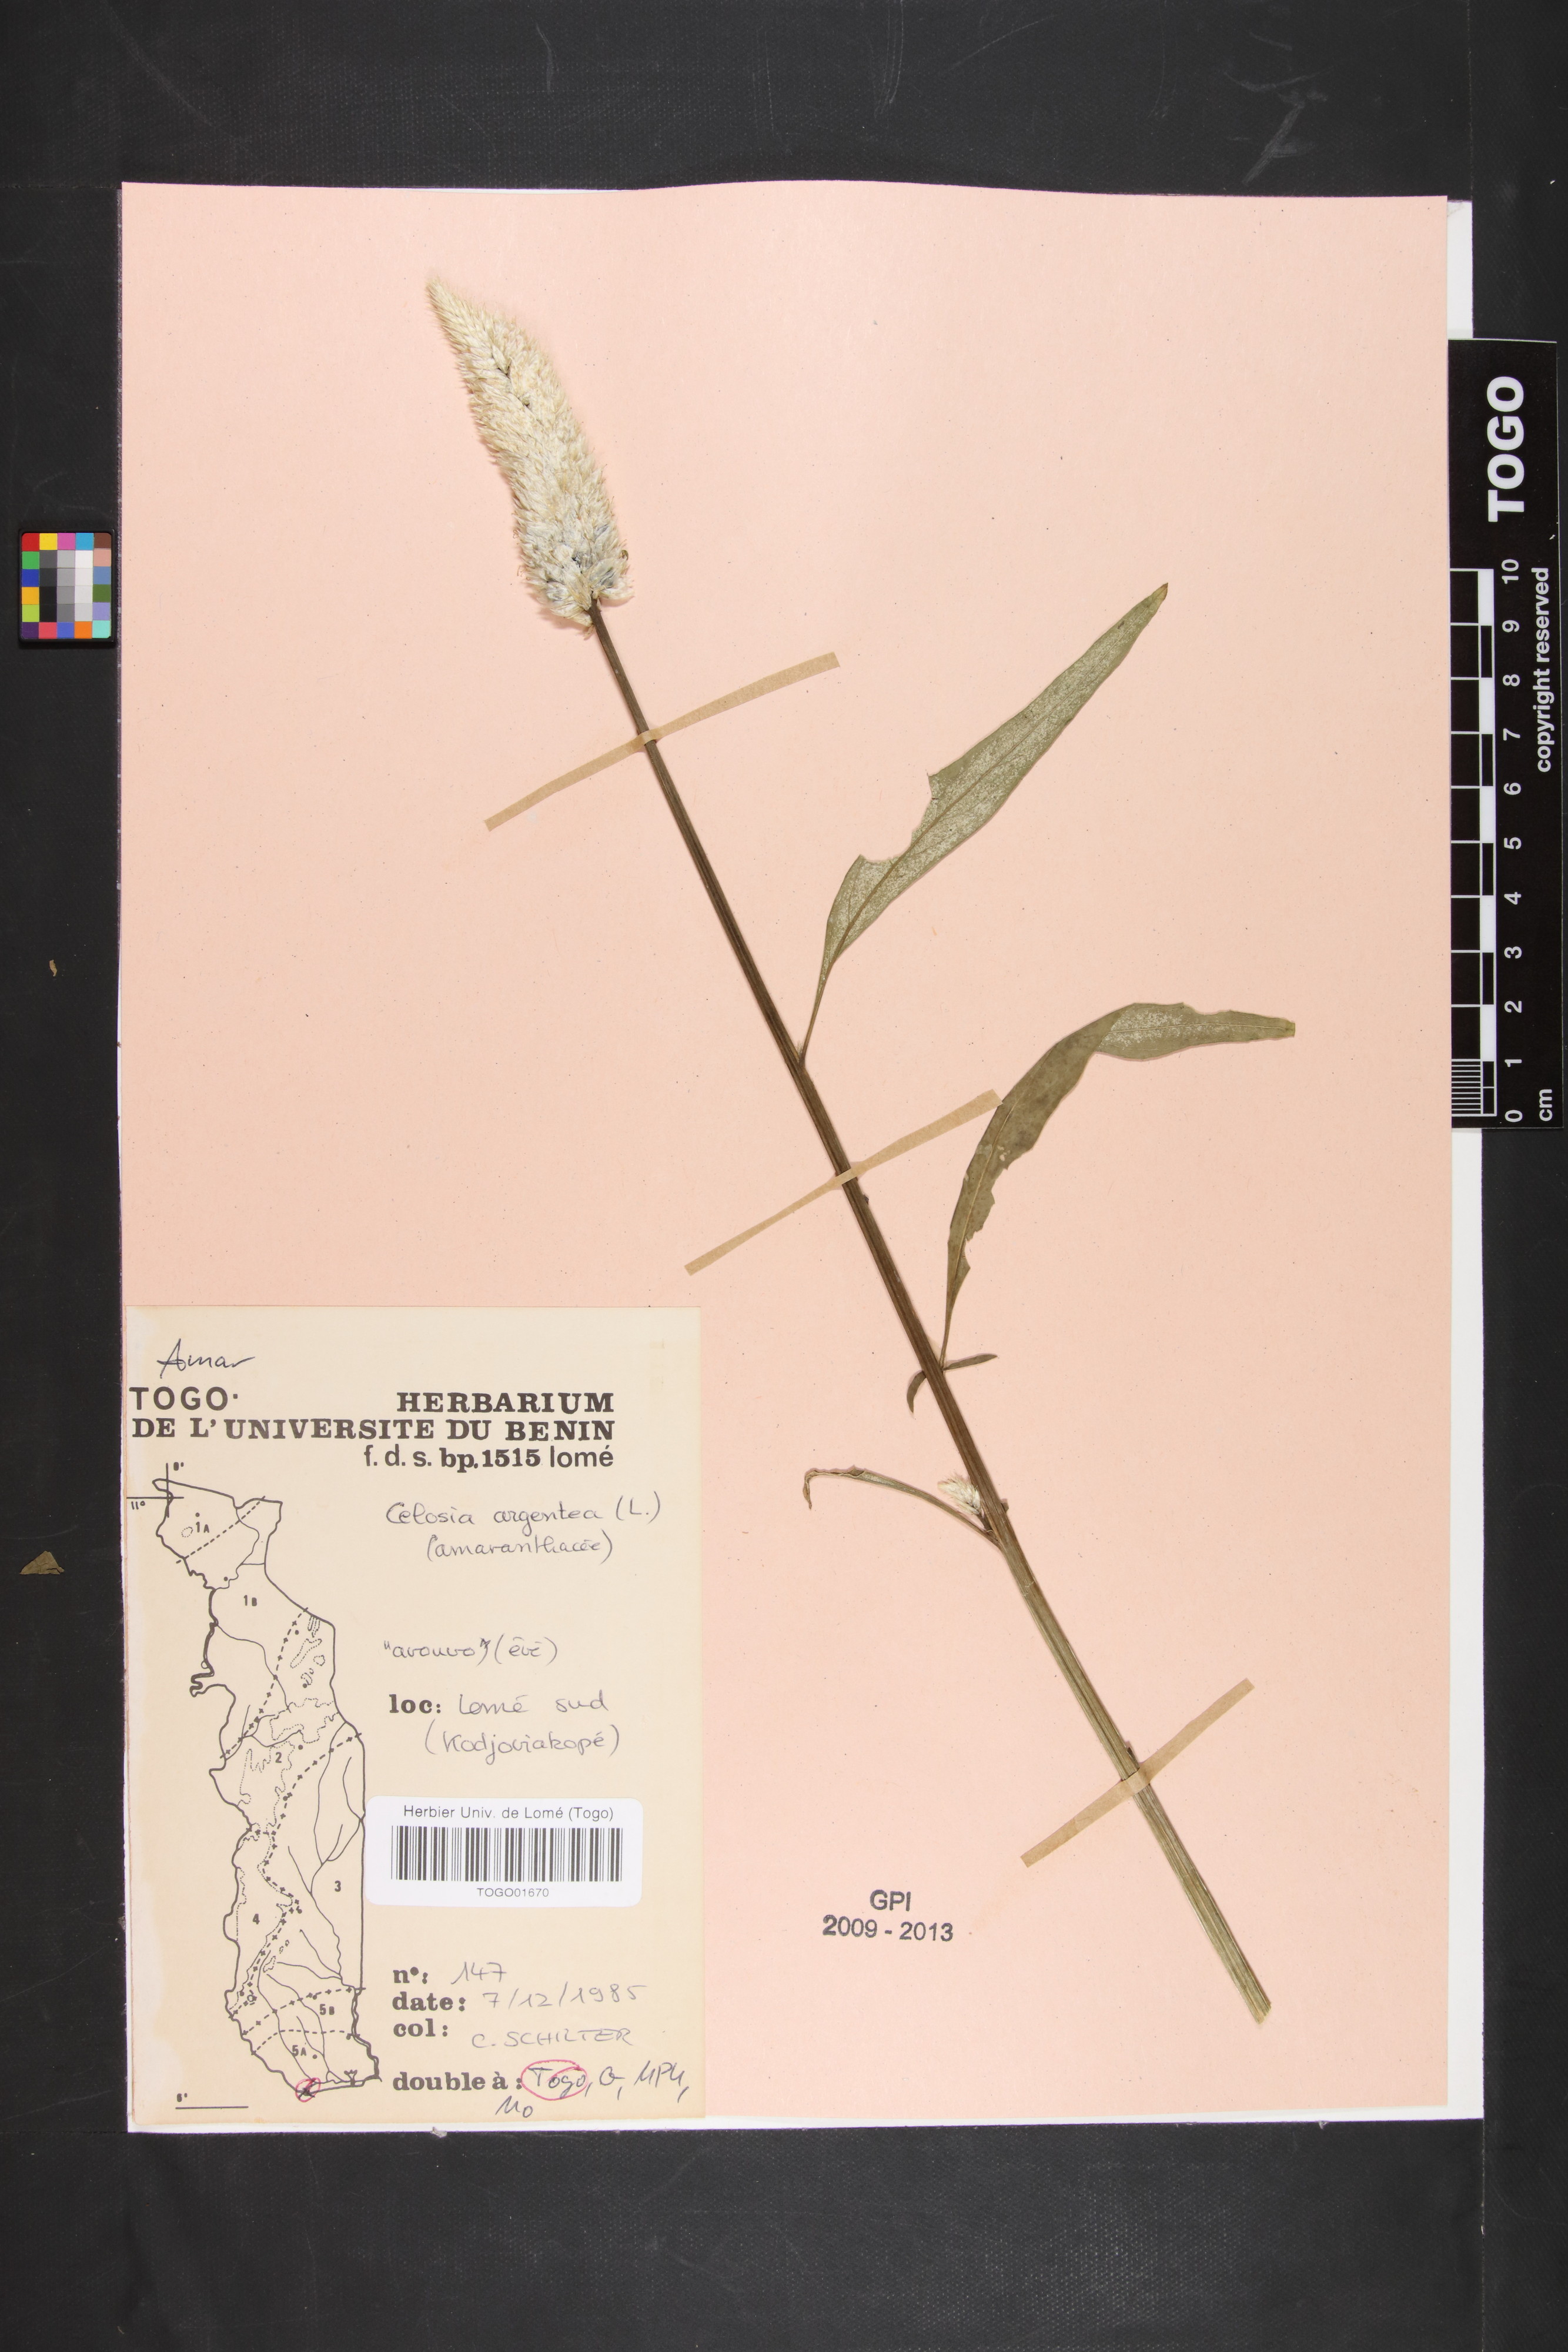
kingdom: Plantae
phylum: Tracheophyta
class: Magnoliopsida
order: Caryophyllales
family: Amaranthaceae
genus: Celosia
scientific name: Celosia argentea
